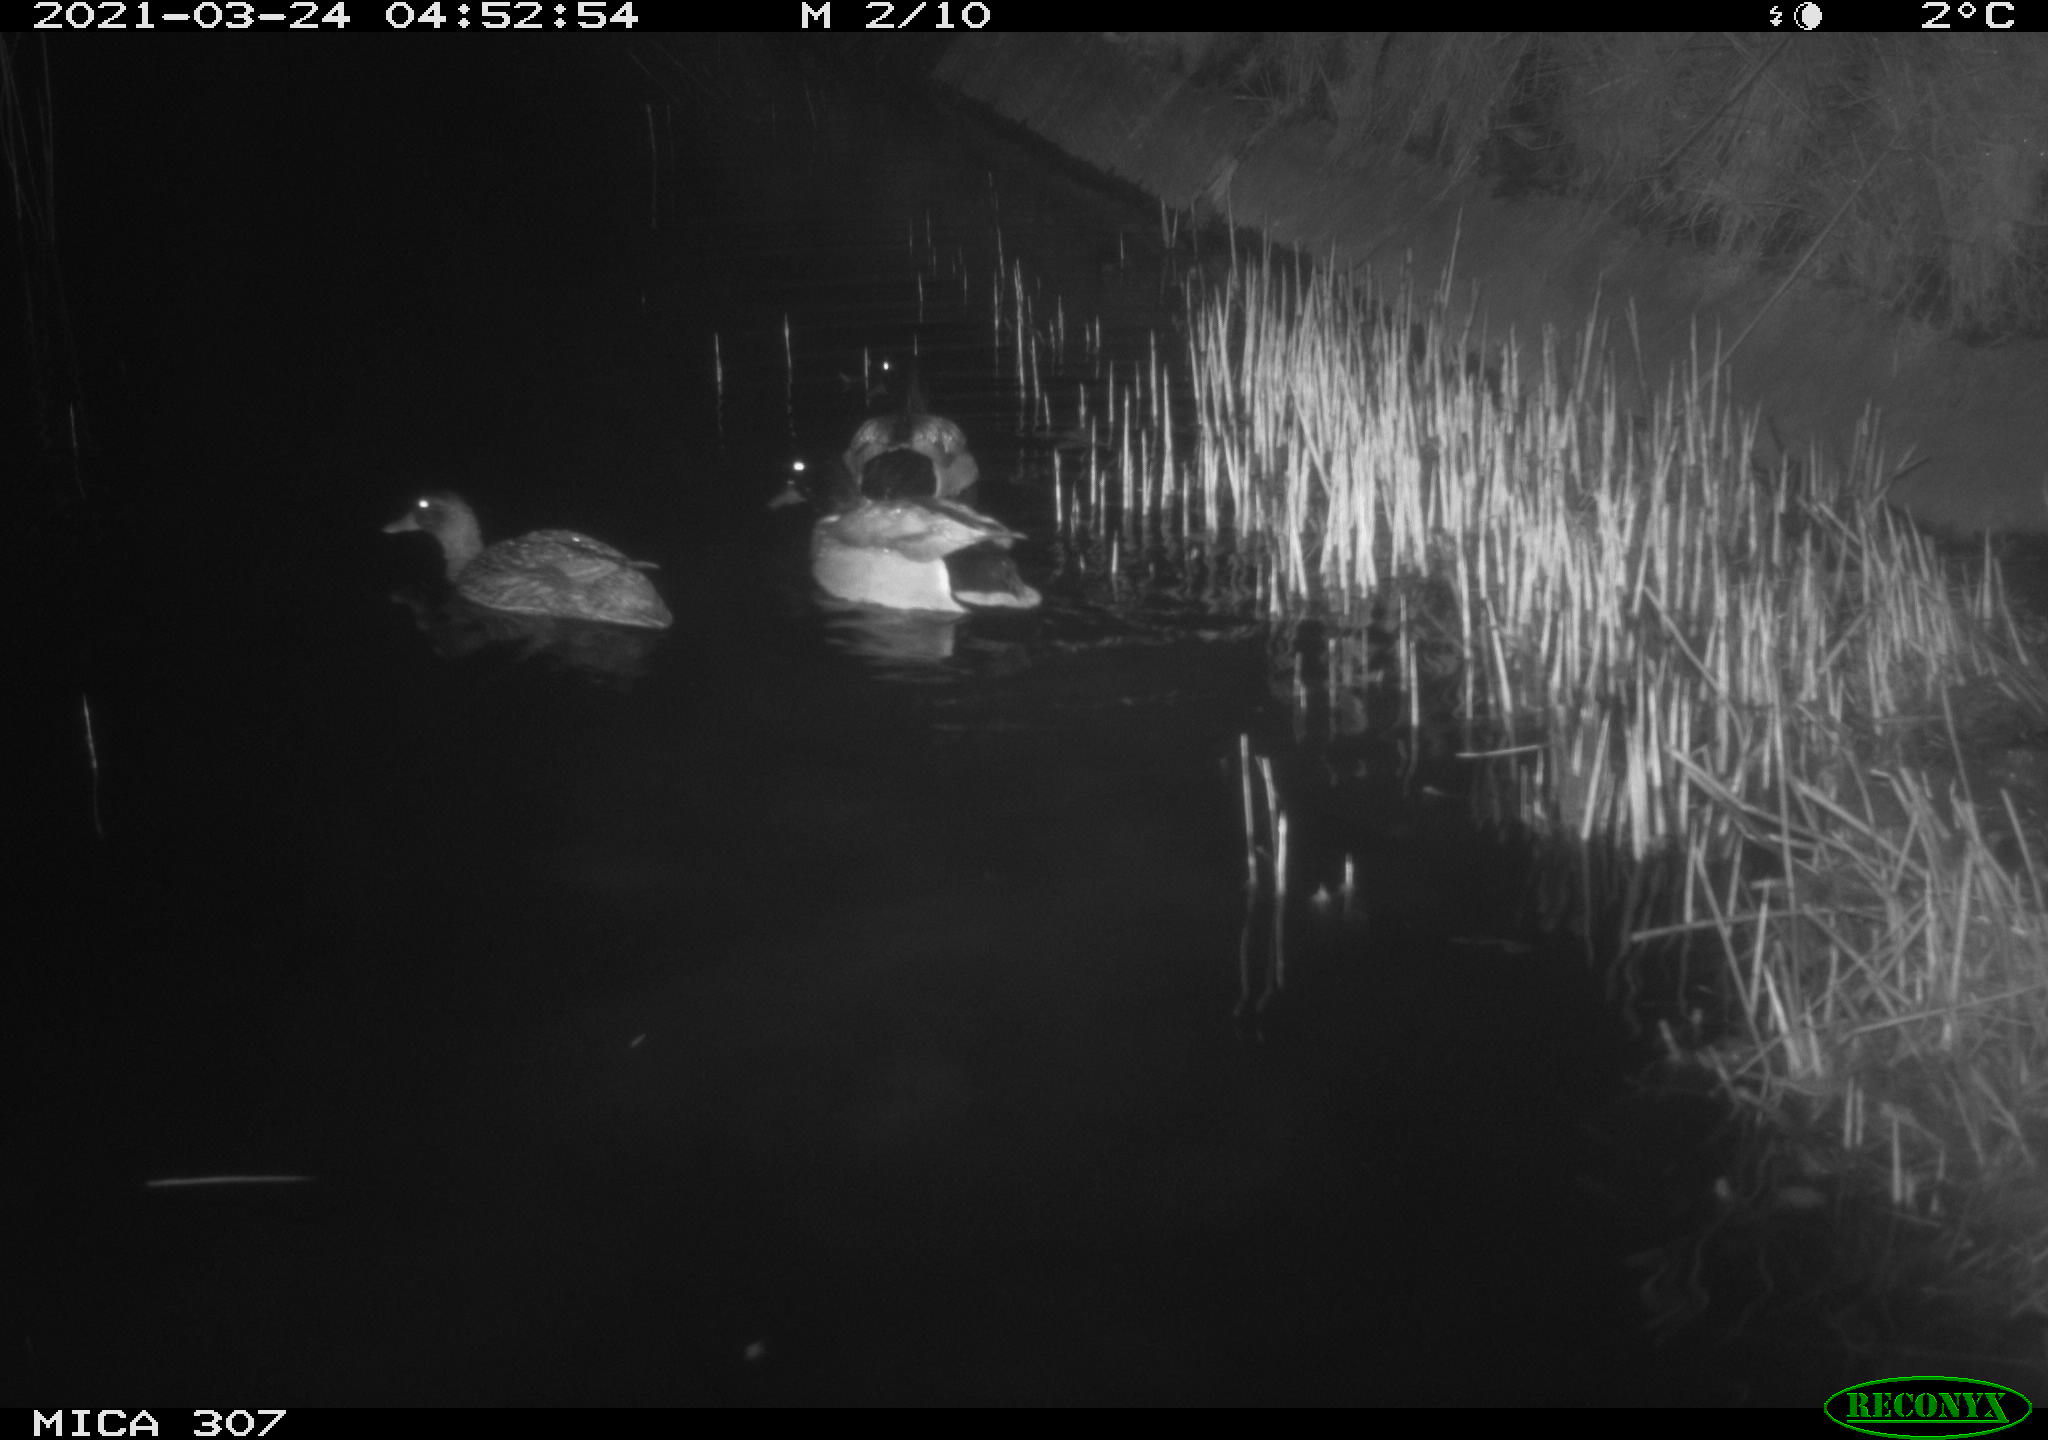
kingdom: Animalia
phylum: Chordata
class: Aves
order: Anseriformes
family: Anatidae
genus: Anas
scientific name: Anas platyrhynchos
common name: Mallard
